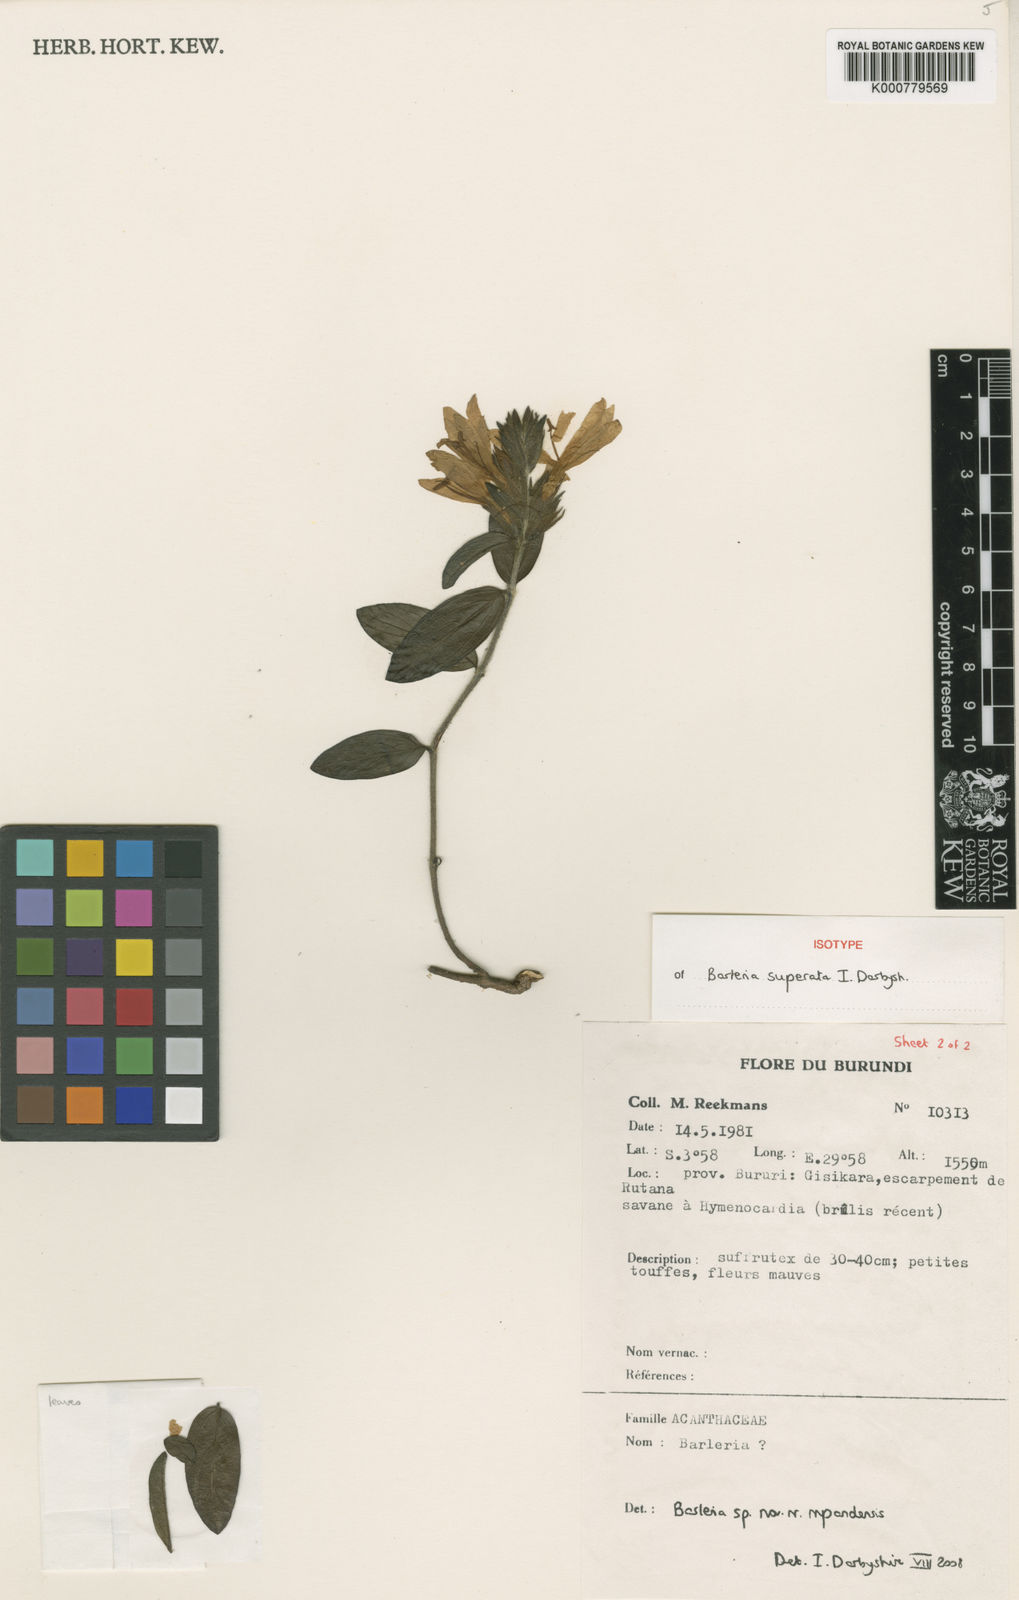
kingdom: Plantae
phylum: Tracheophyta
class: Magnoliopsida
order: Lamiales
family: Acanthaceae
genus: Barleria
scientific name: Barleria superata
